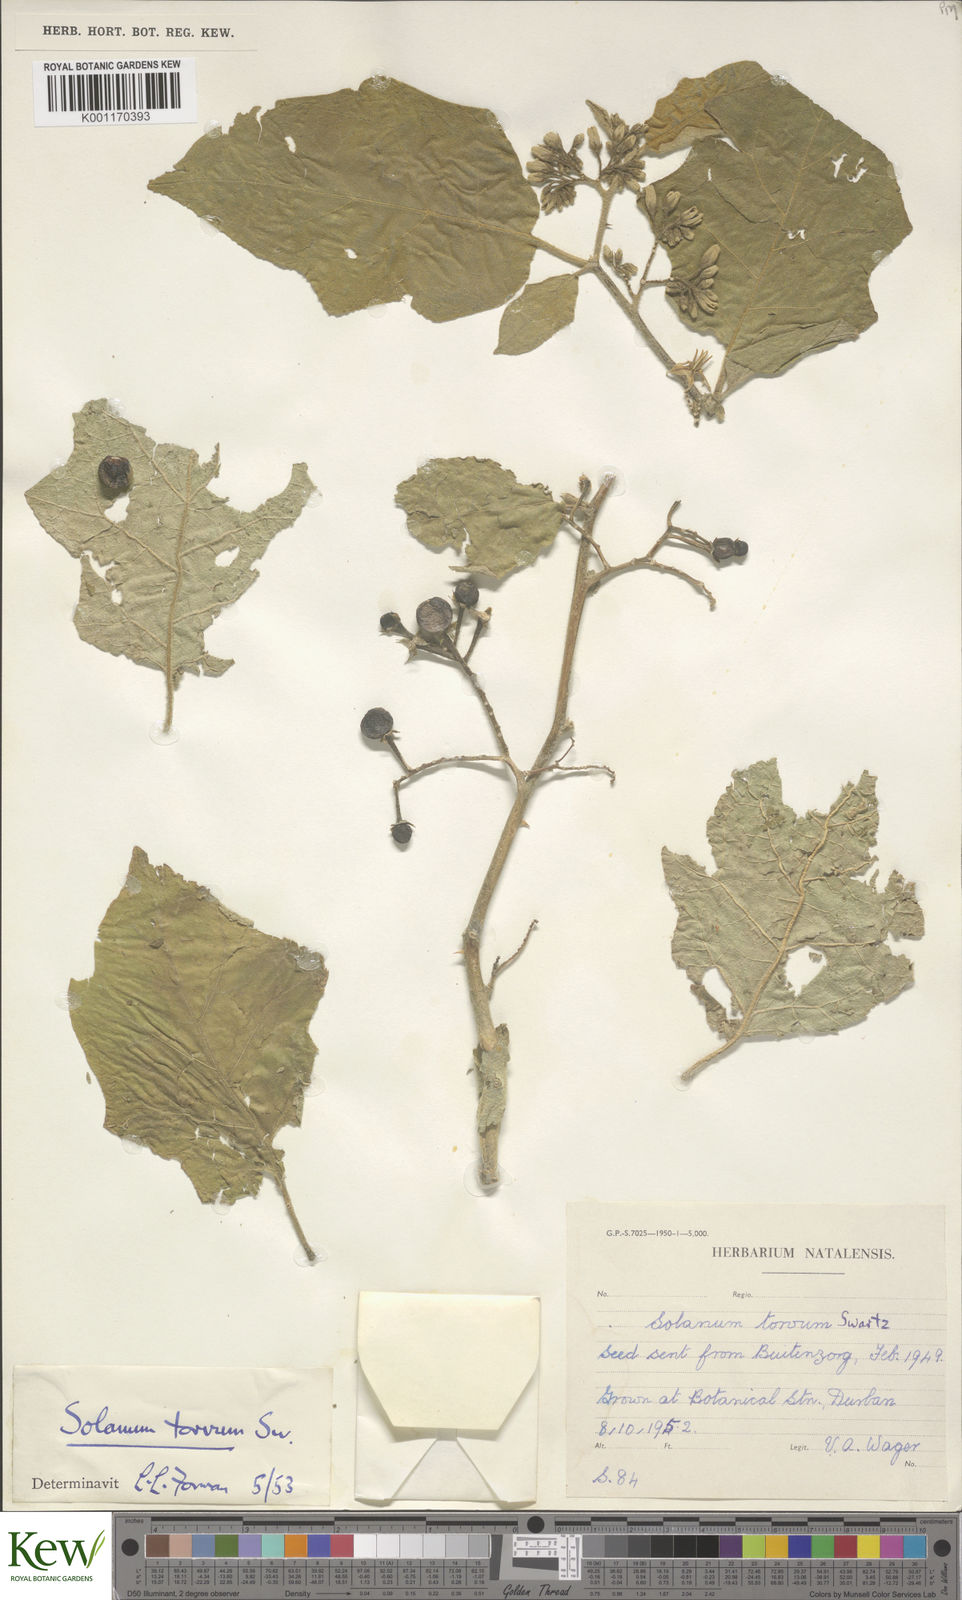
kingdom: Plantae
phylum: Tracheophyta
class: Magnoliopsida
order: Solanales
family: Solanaceae
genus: Solanum
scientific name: Solanum torvum
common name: Turkey berry
